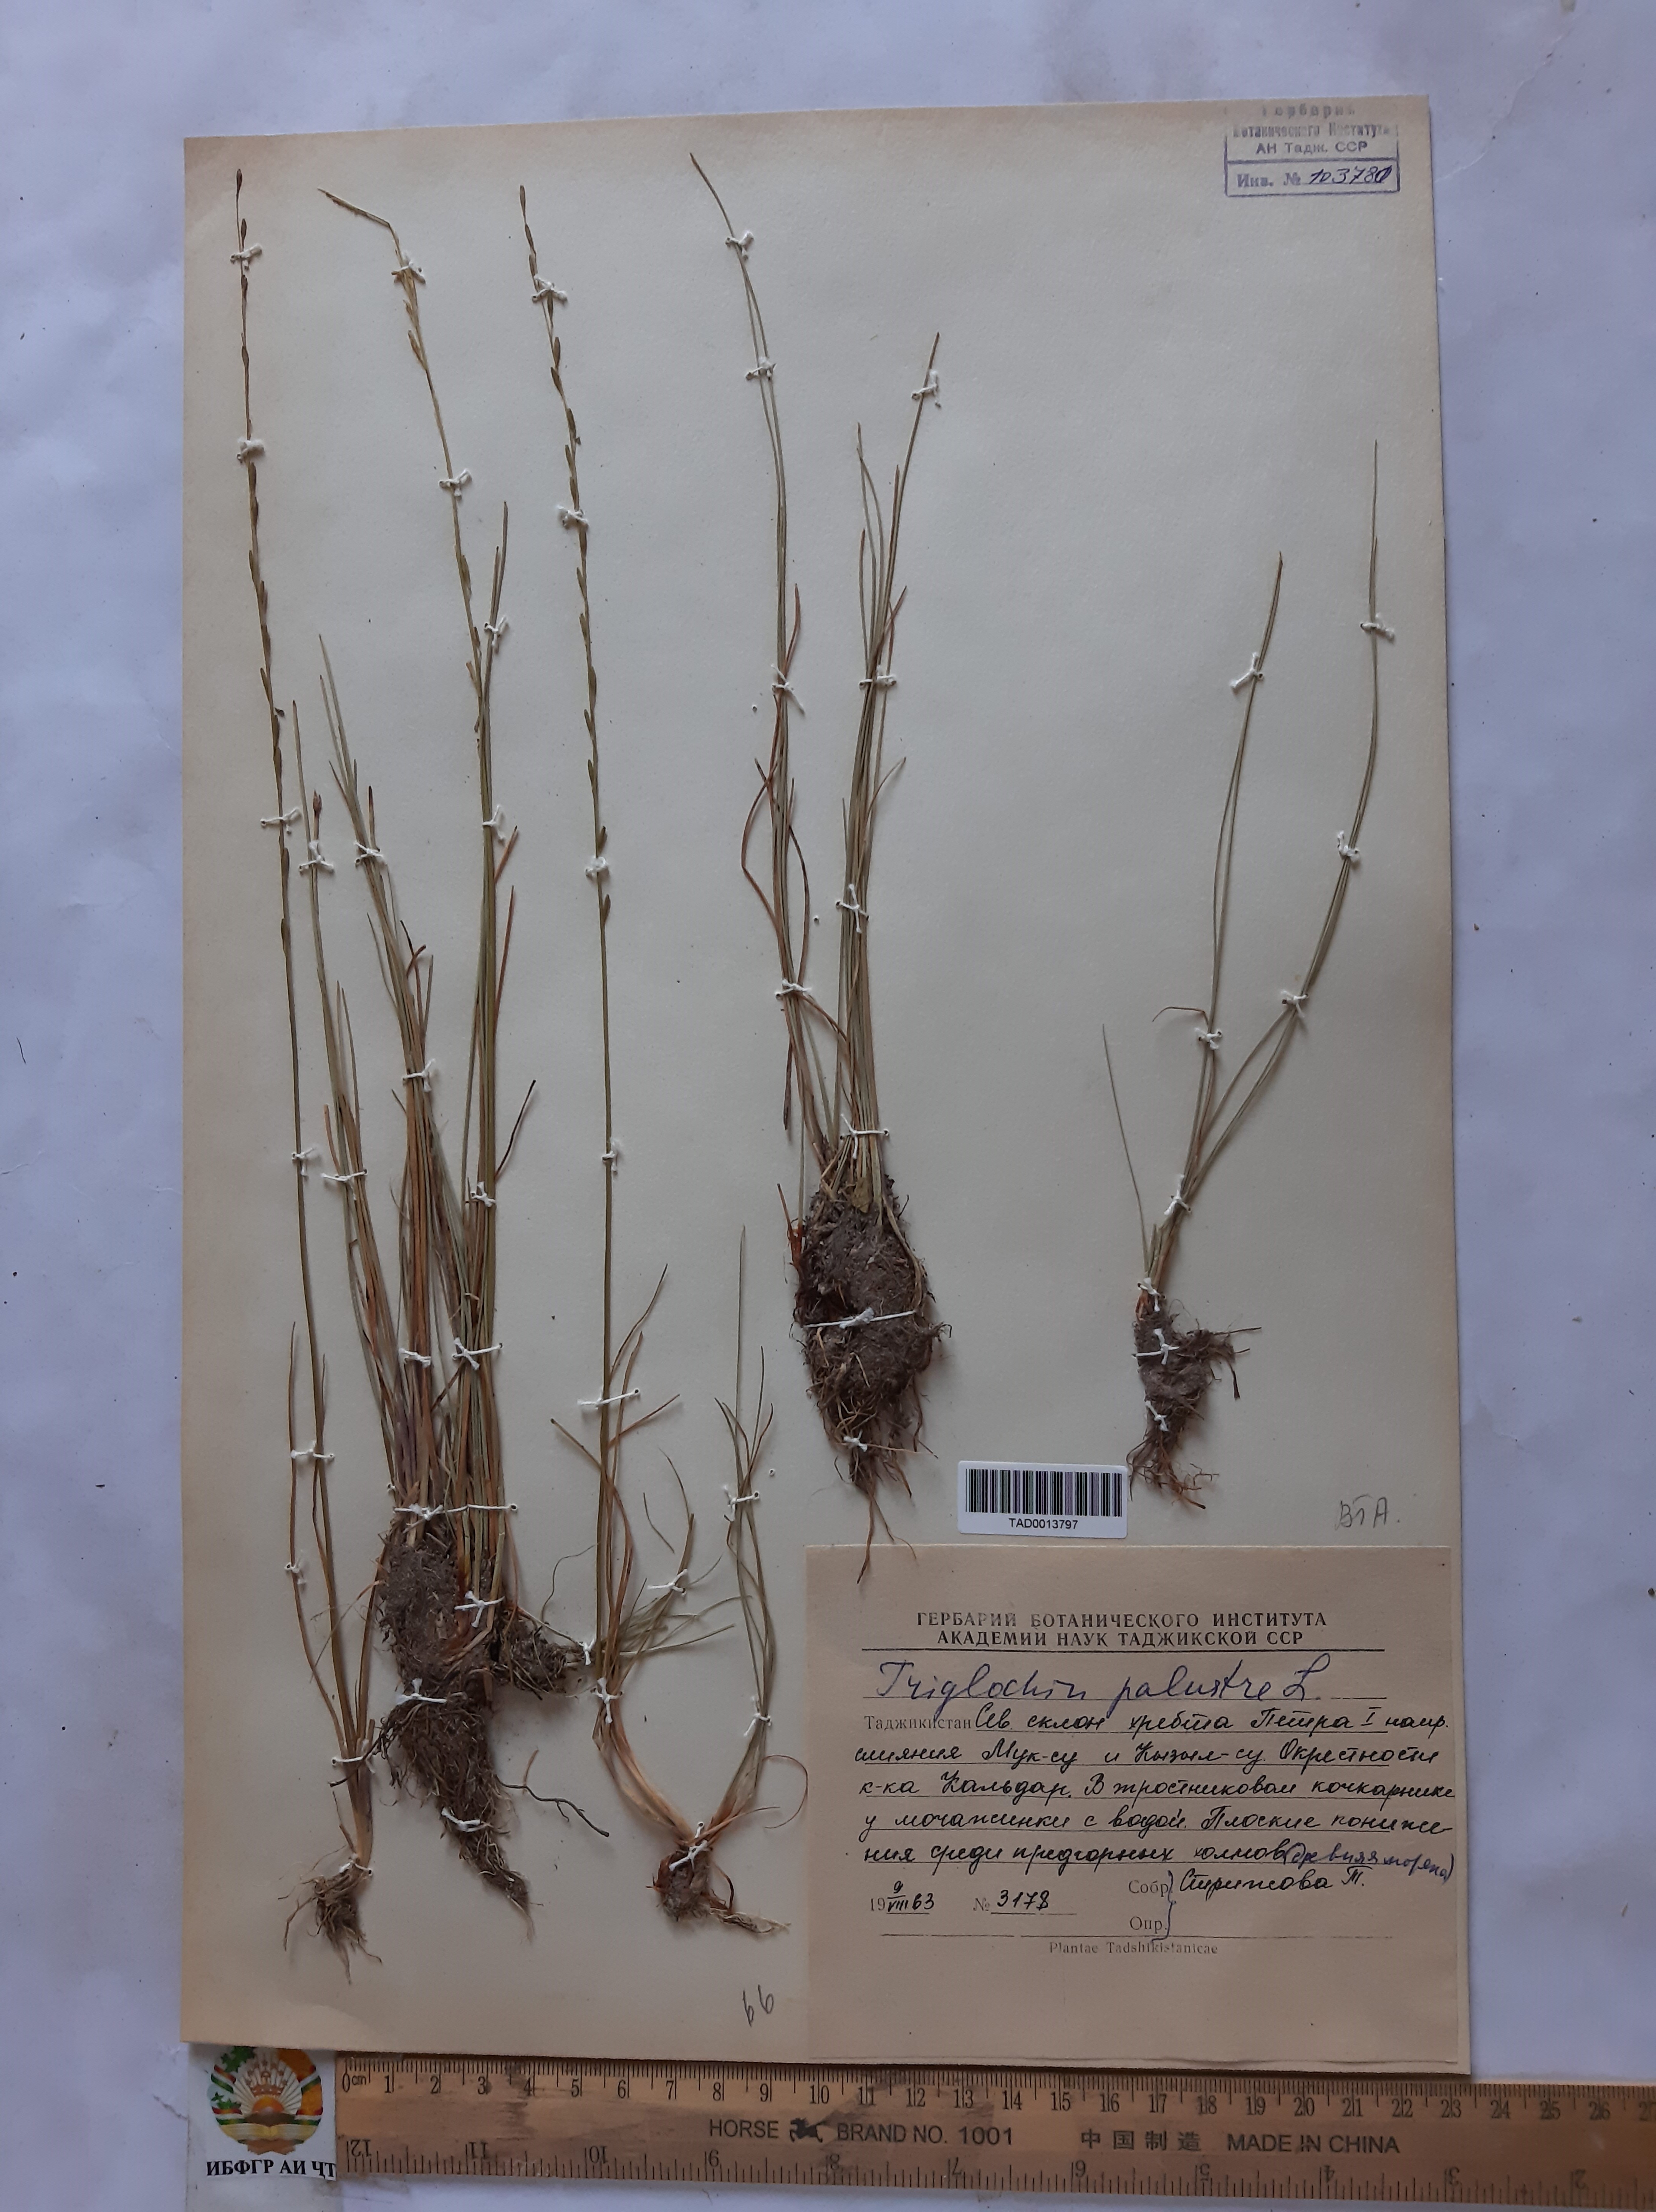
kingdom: Plantae
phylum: Tracheophyta
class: Liliopsida
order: Alismatales
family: Juncaginaceae
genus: Triglochin
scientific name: Triglochin palustris
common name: Marsh arrowgrass
